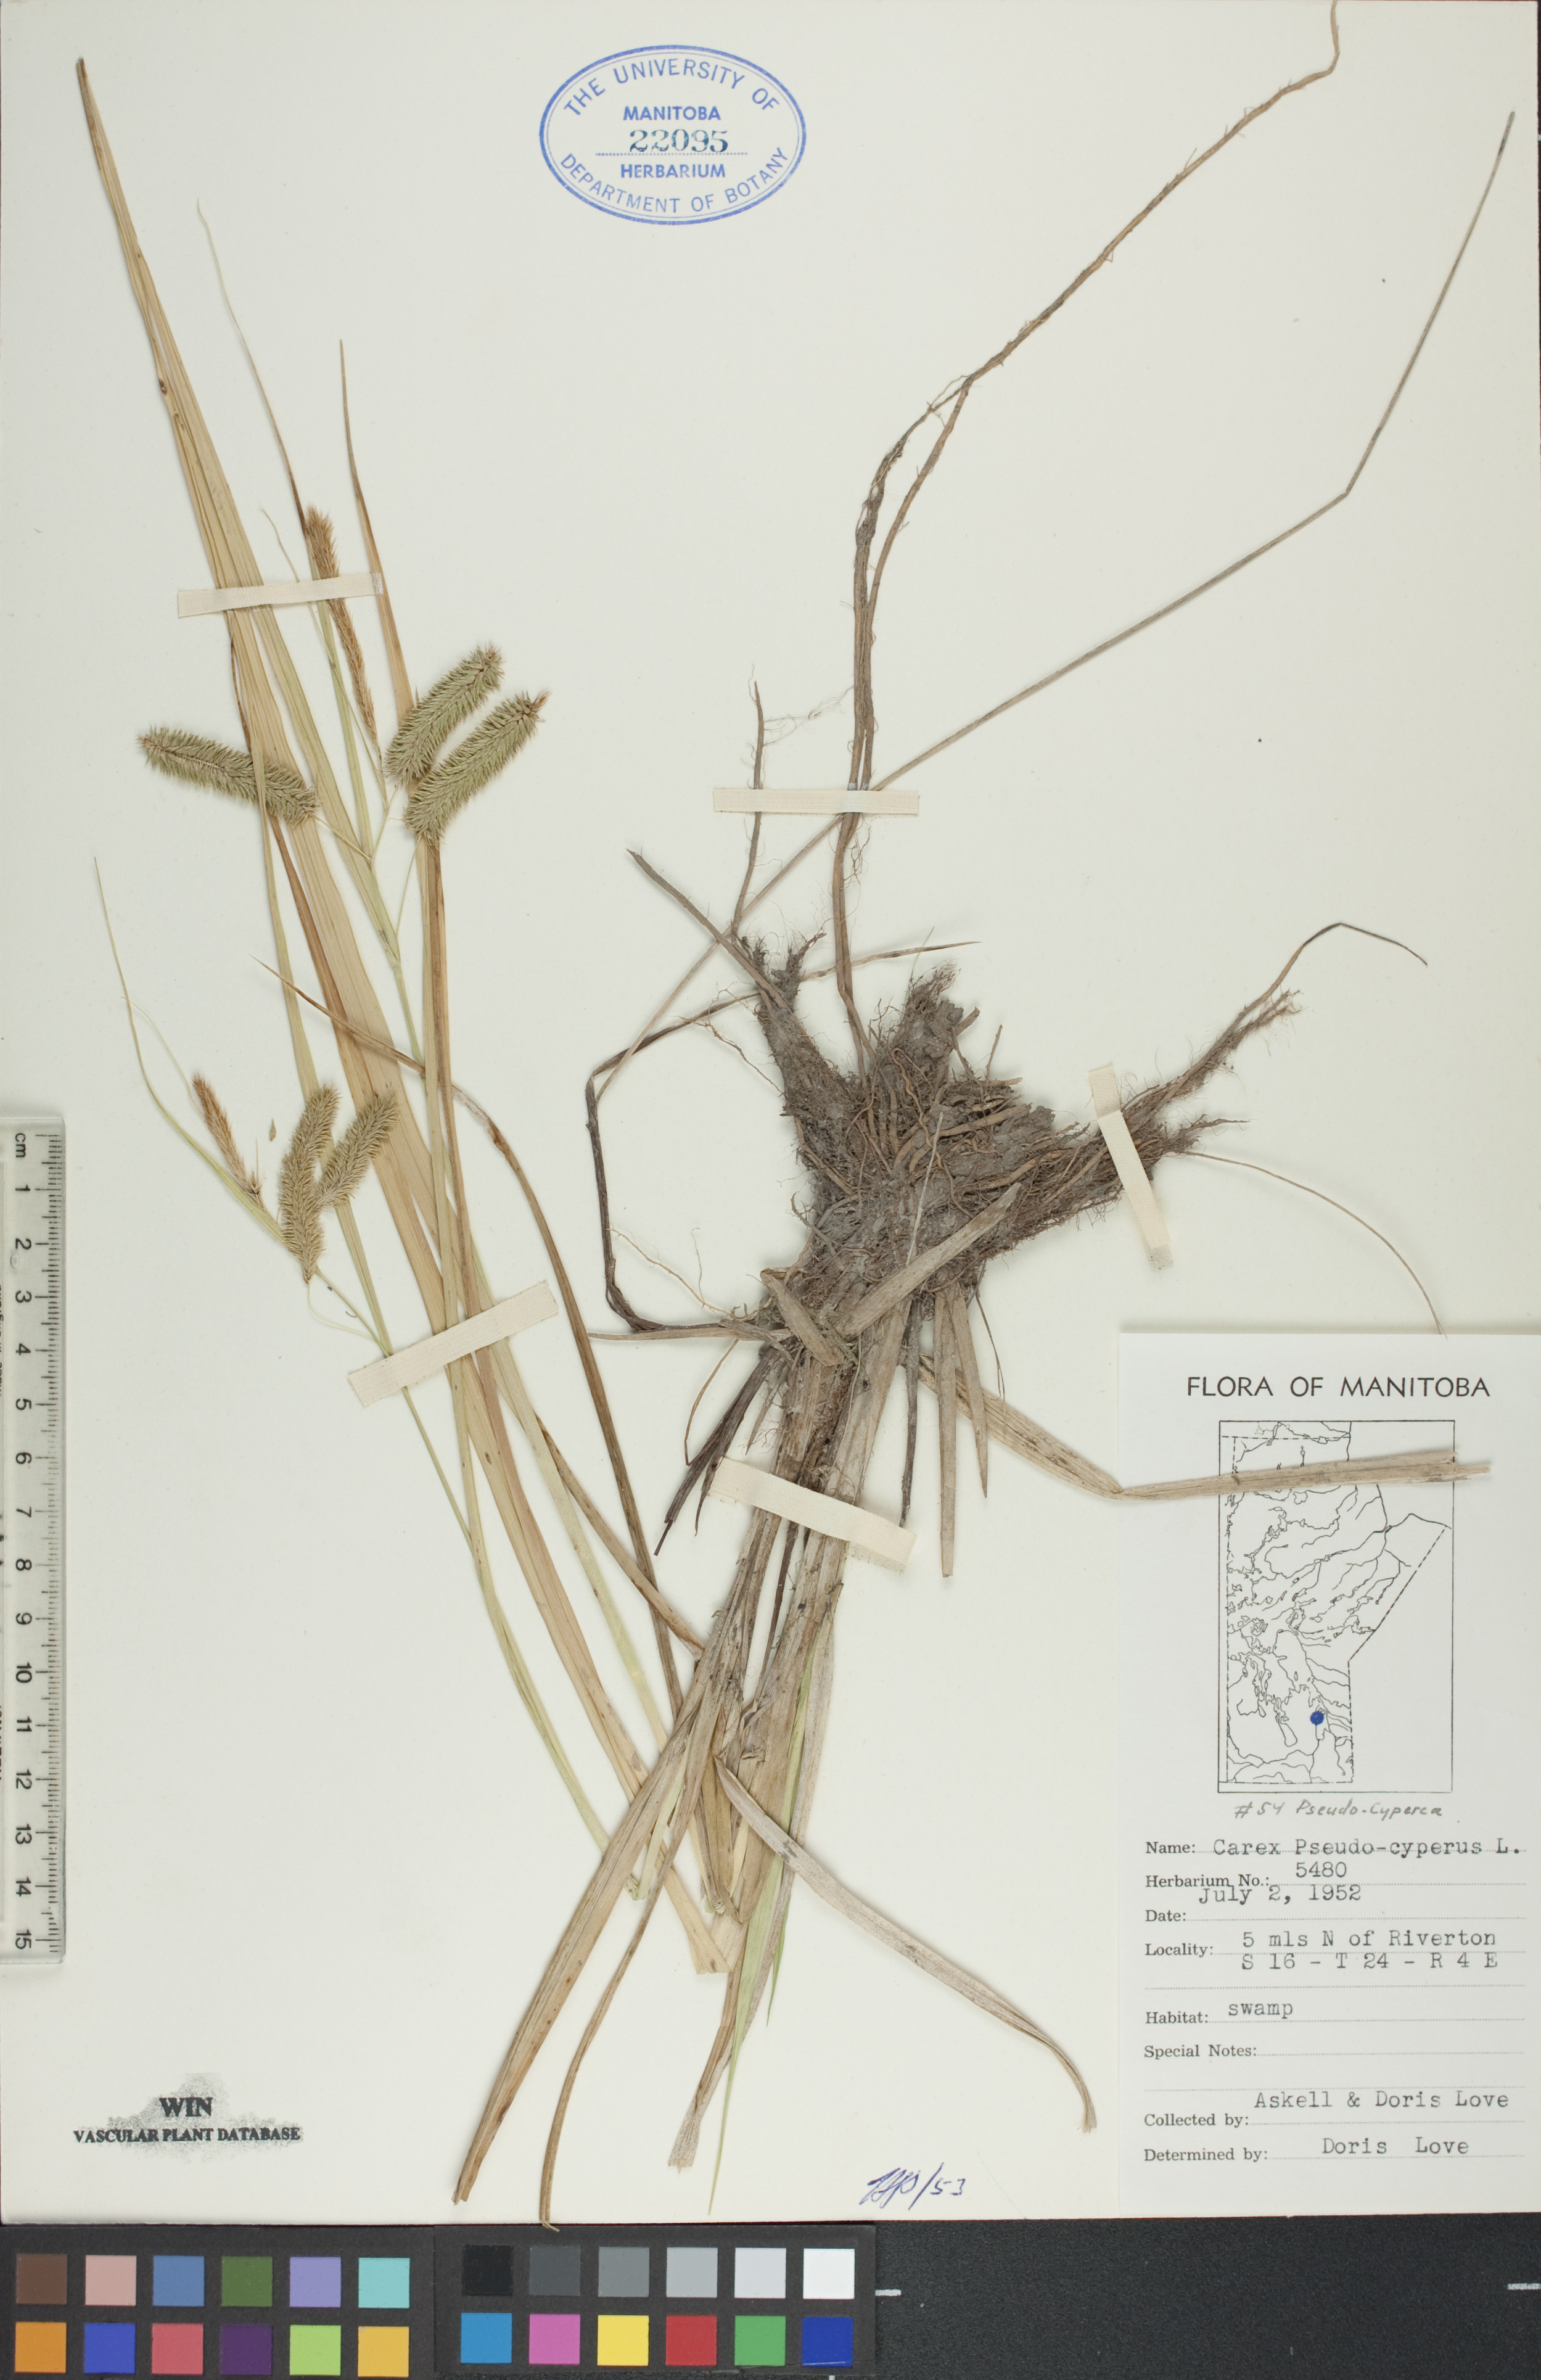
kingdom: Plantae
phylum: Tracheophyta
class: Liliopsida
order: Poales
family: Cyperaceae
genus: Carex
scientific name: Carex pseudocyperus
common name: Cyperus sedge
